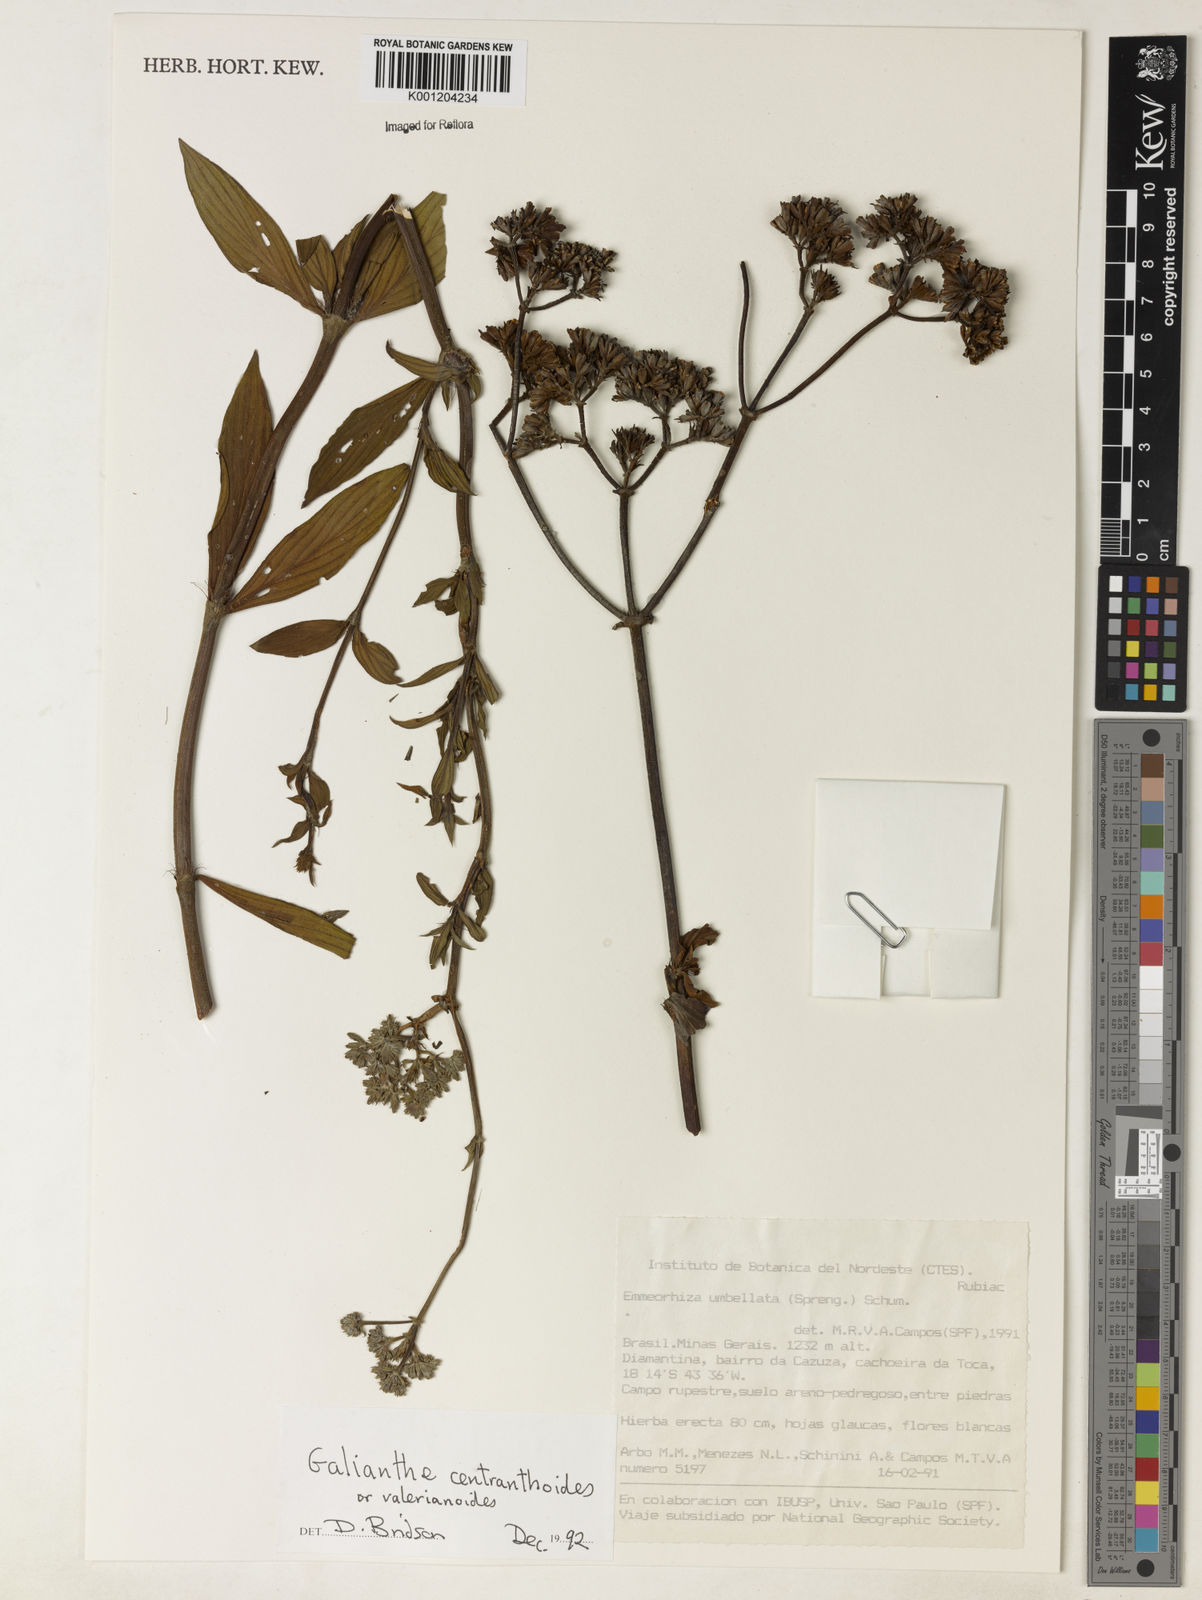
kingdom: Plantae
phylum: Tracheophyta
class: Magnoliopsida
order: Gentianales
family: Rubiaceae
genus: Galianthe
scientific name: Galianthe centranthoides
